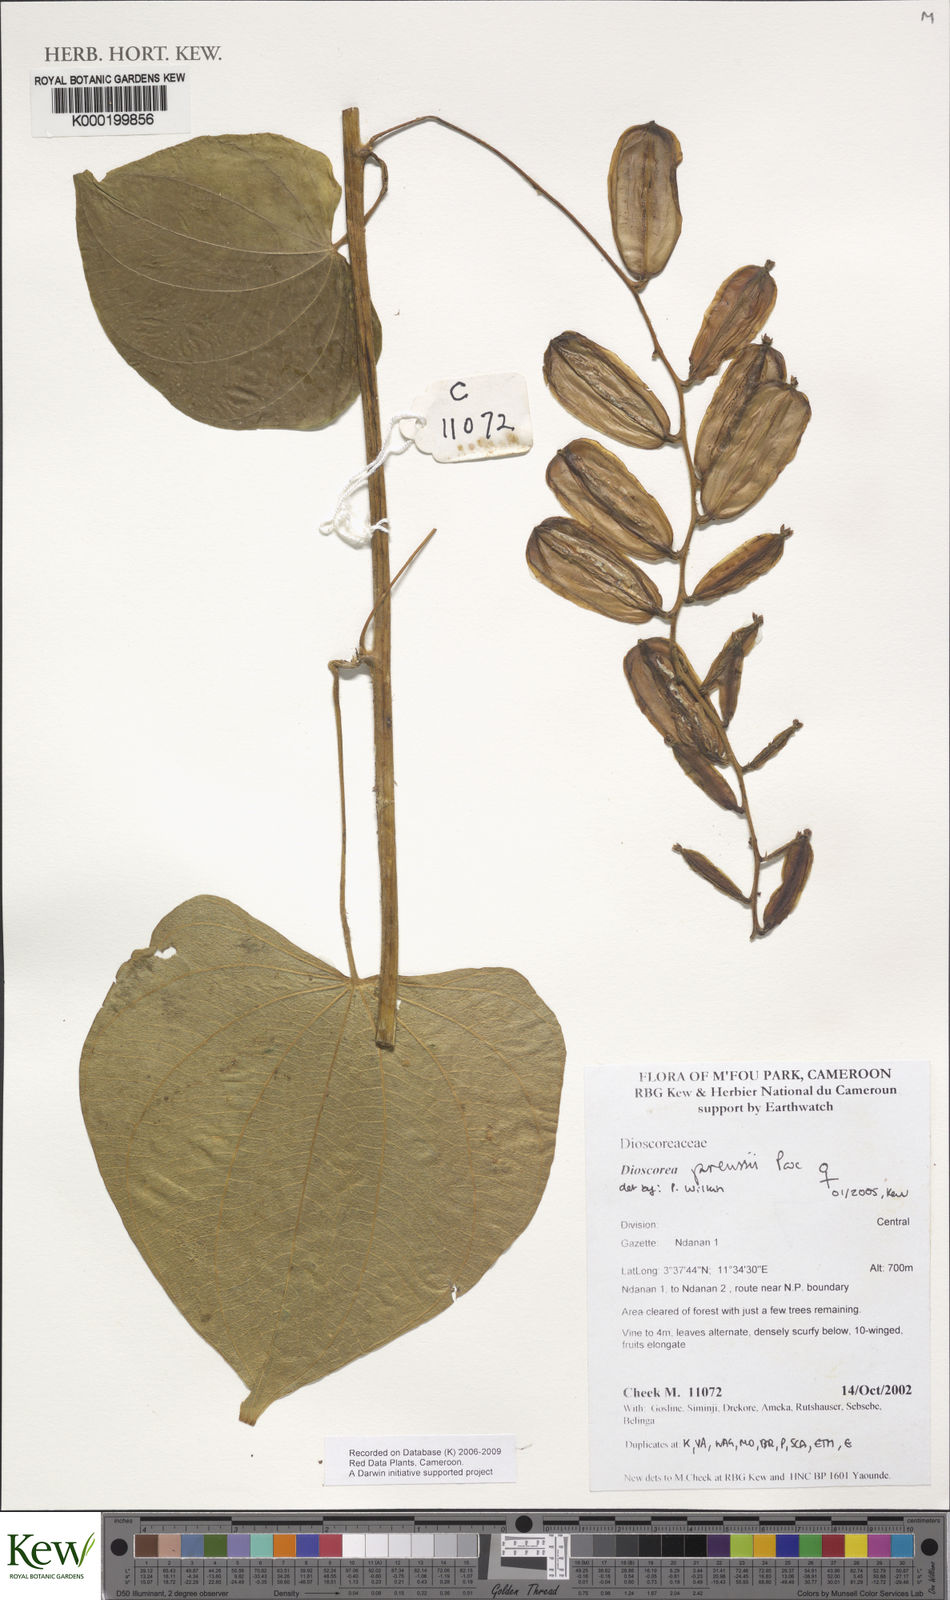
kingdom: Plantae
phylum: Tracheophyta
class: Liliopsida
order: Dioscoreales
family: Dioscoreaceae
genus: Dioscorea
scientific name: Dioscorea preussii
